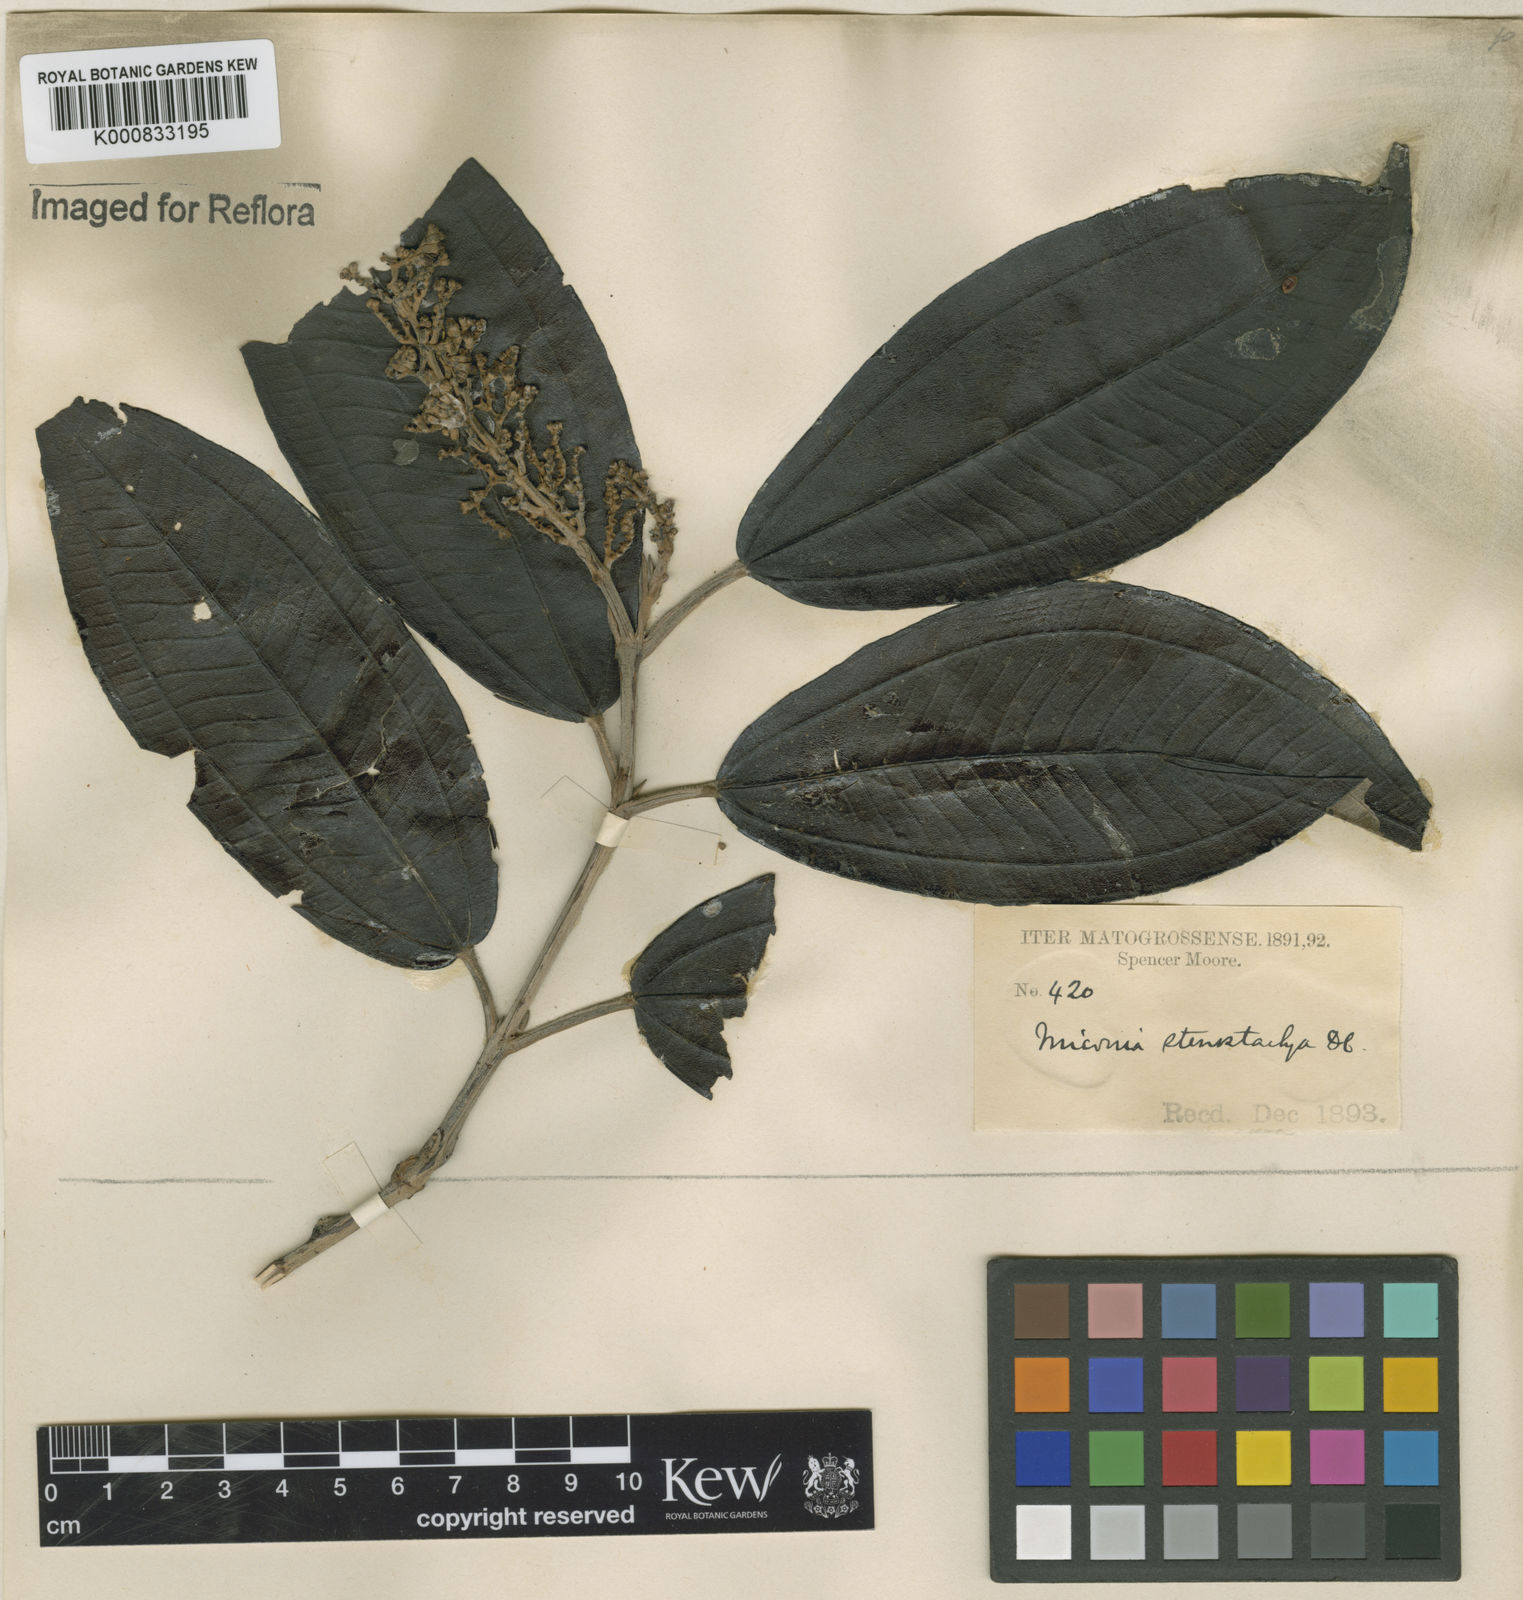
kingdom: Plantae
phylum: Tracheophyta
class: Magnoliopsida
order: Myrtales
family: Melastomataceae
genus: Miconia
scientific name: Miconia stenostachya
